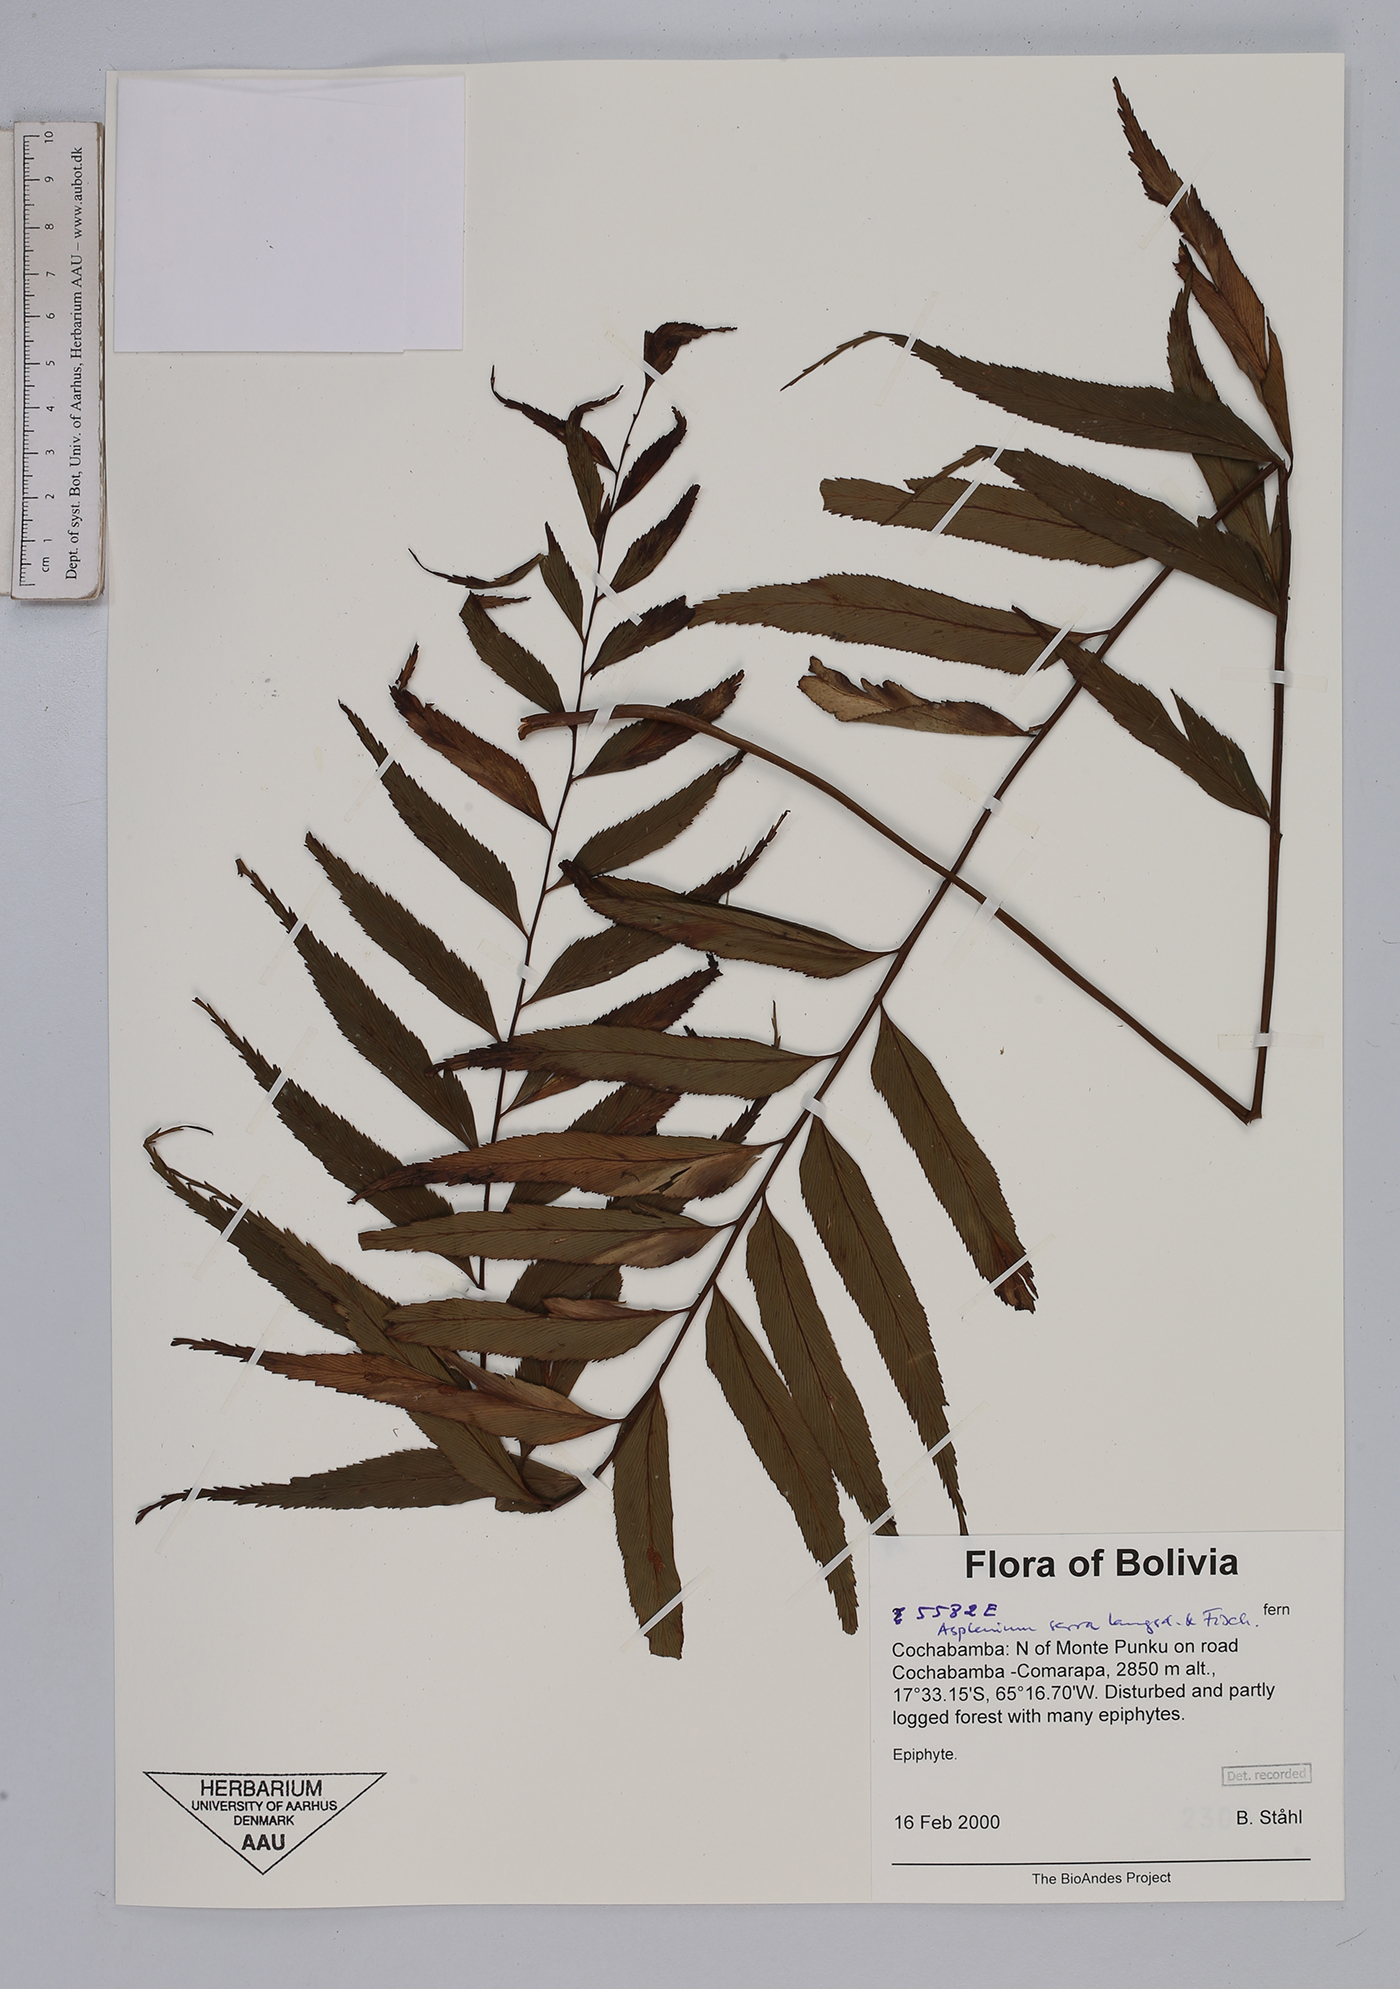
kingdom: Plantae
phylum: Tracheophyta
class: Polypodiopsida
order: Polypodiales
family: Aspleniaceae
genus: Asplenium
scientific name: Asplenium serra
